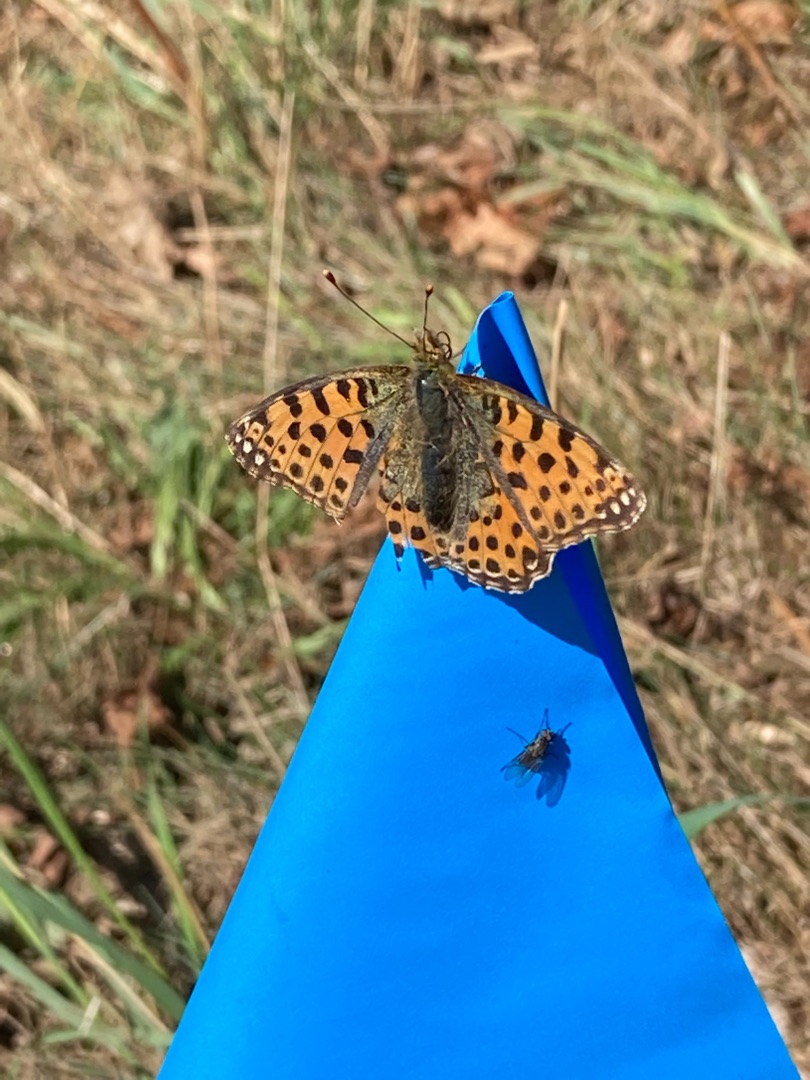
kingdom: Animalia
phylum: Arthropoda
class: Insecta
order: Lepidoptera
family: Nymphalidae
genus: Issoria
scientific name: Issoria lathonia
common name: Storplettet perlemorsommerfugl
